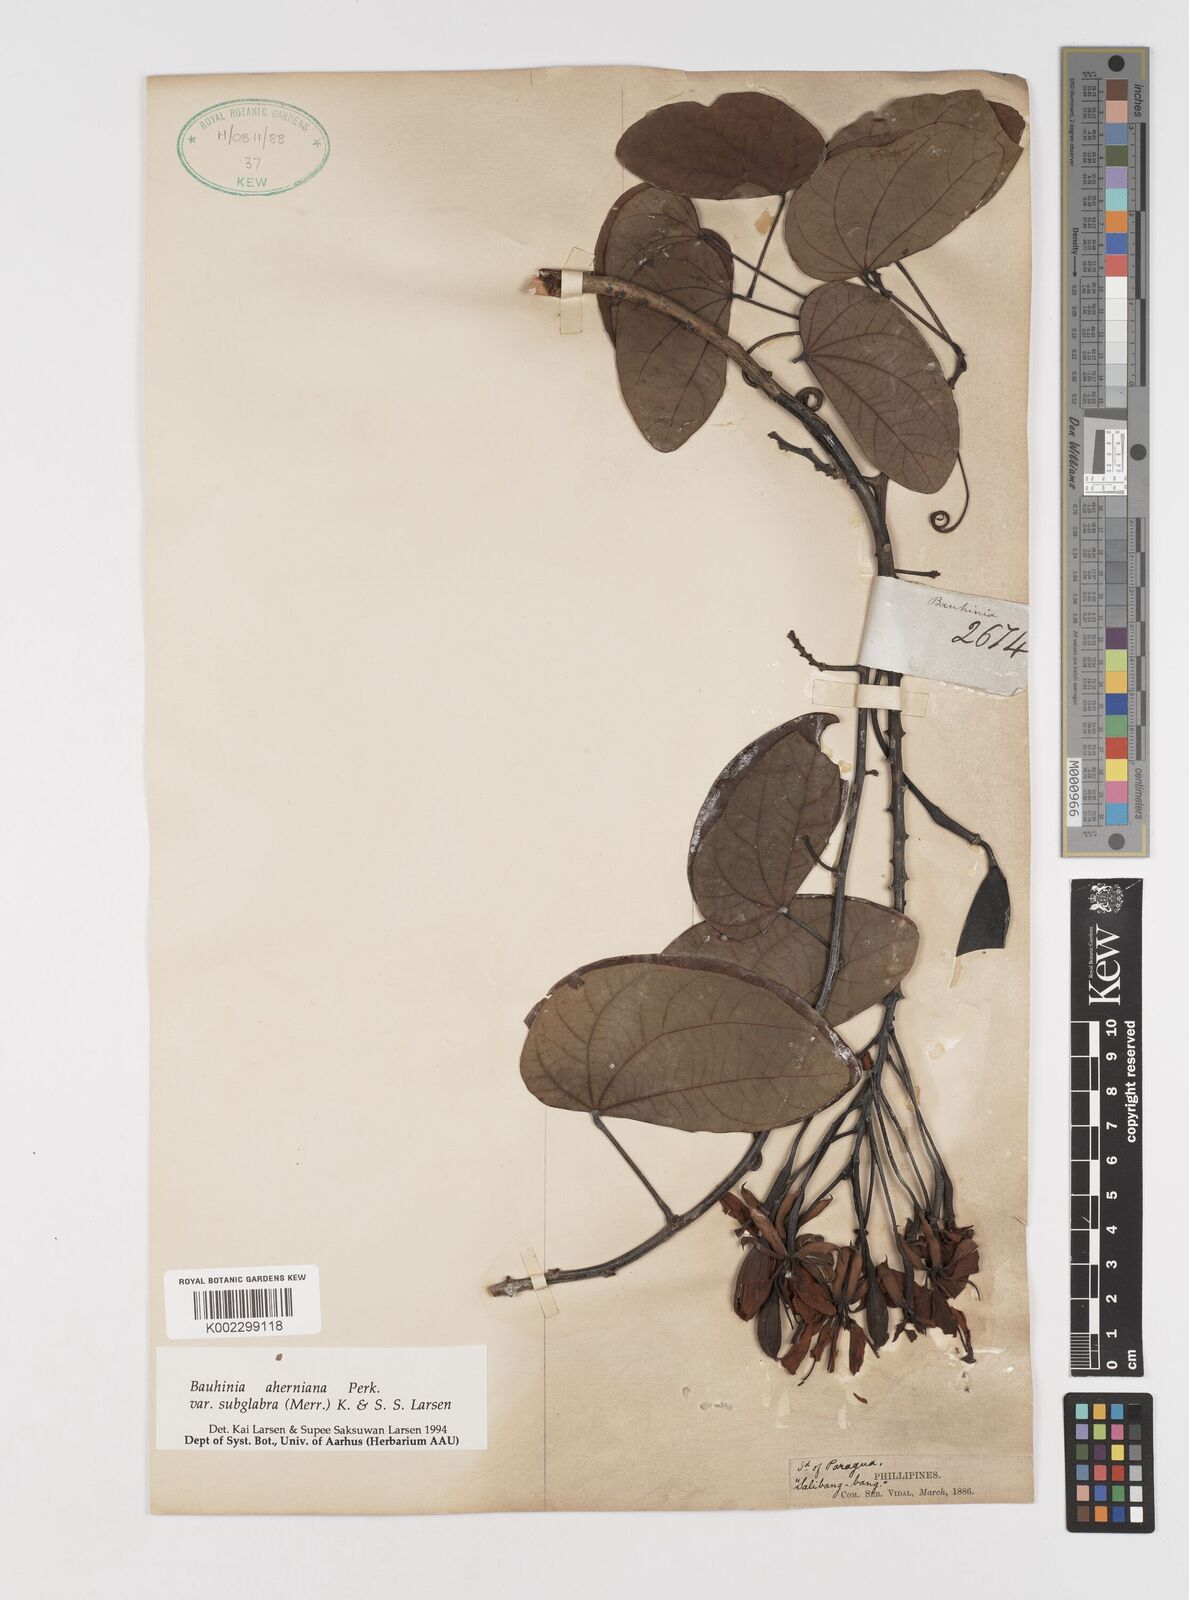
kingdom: Plantae
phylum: Tracheophyta
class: Magnoliopsida
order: Fabales
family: Fabaceae
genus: Phanera
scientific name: Phanera aherniana
